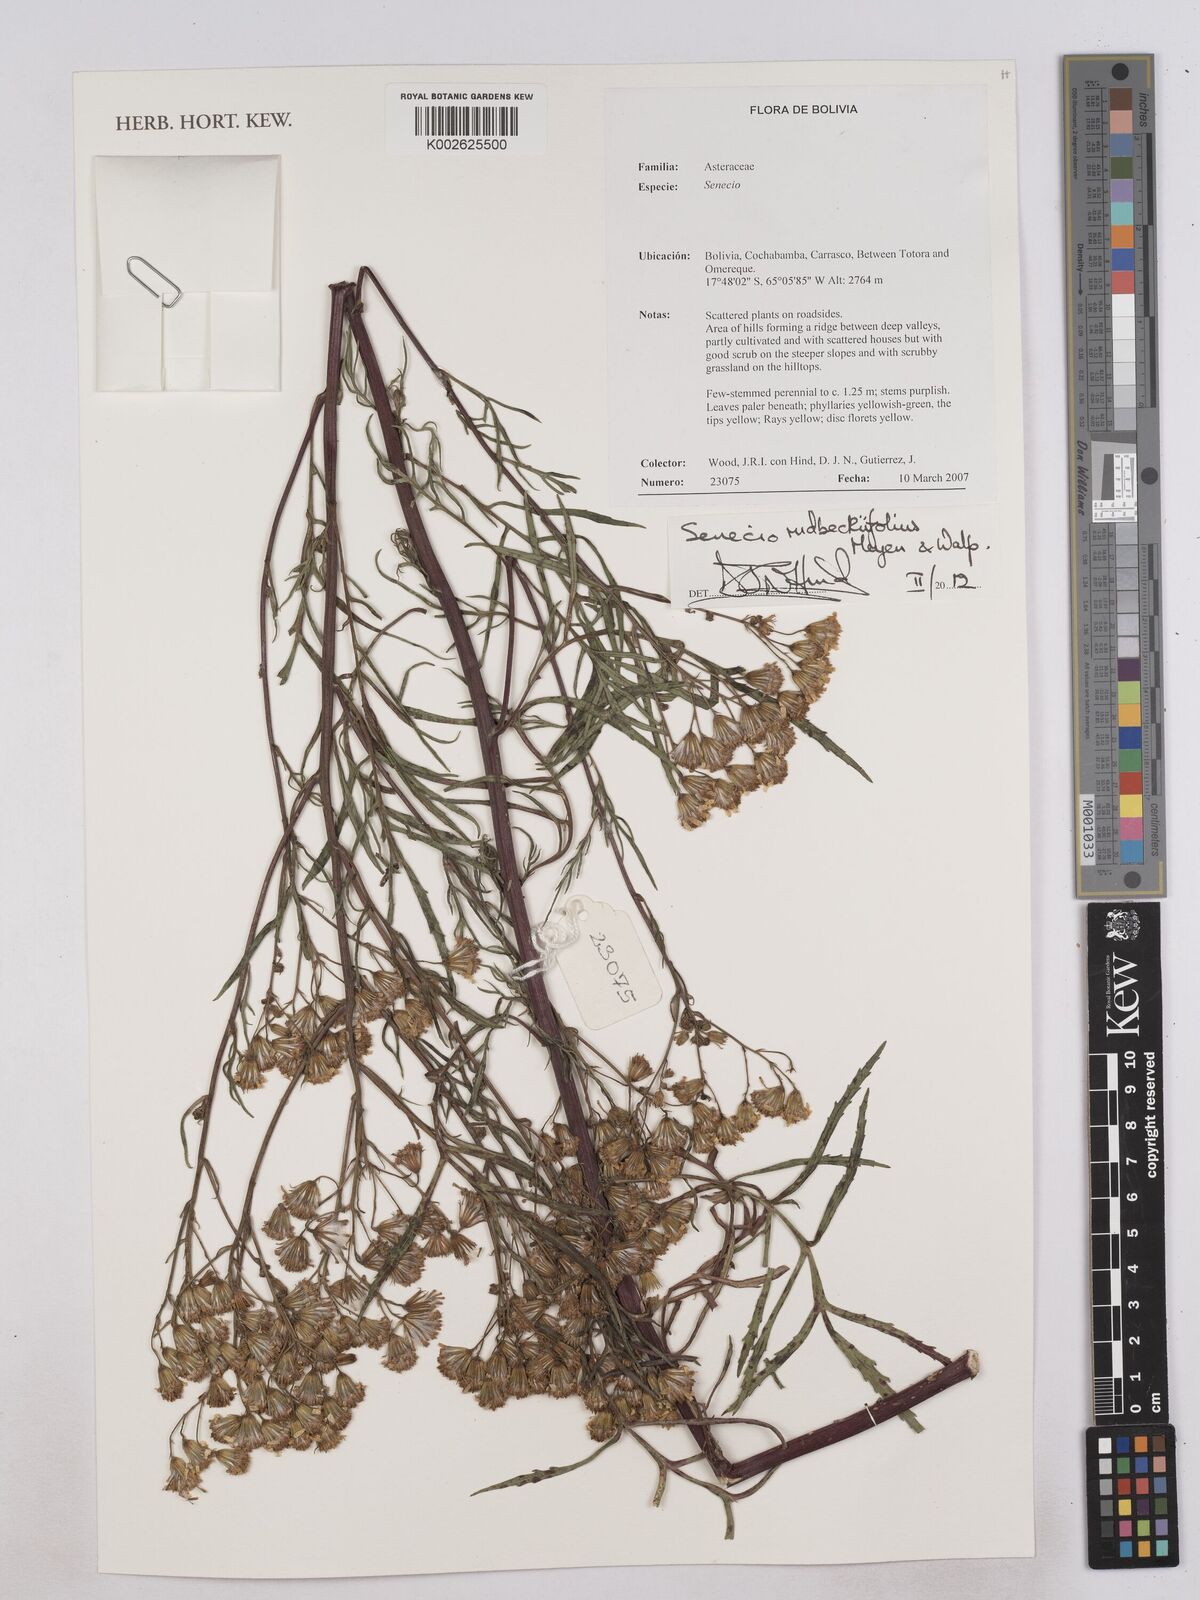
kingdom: Plantae
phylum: Tracheophyta
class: Magnoliopsida
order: Asterales
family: Asteraceae
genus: Senecio
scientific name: Senecio rudbeckiifolius
